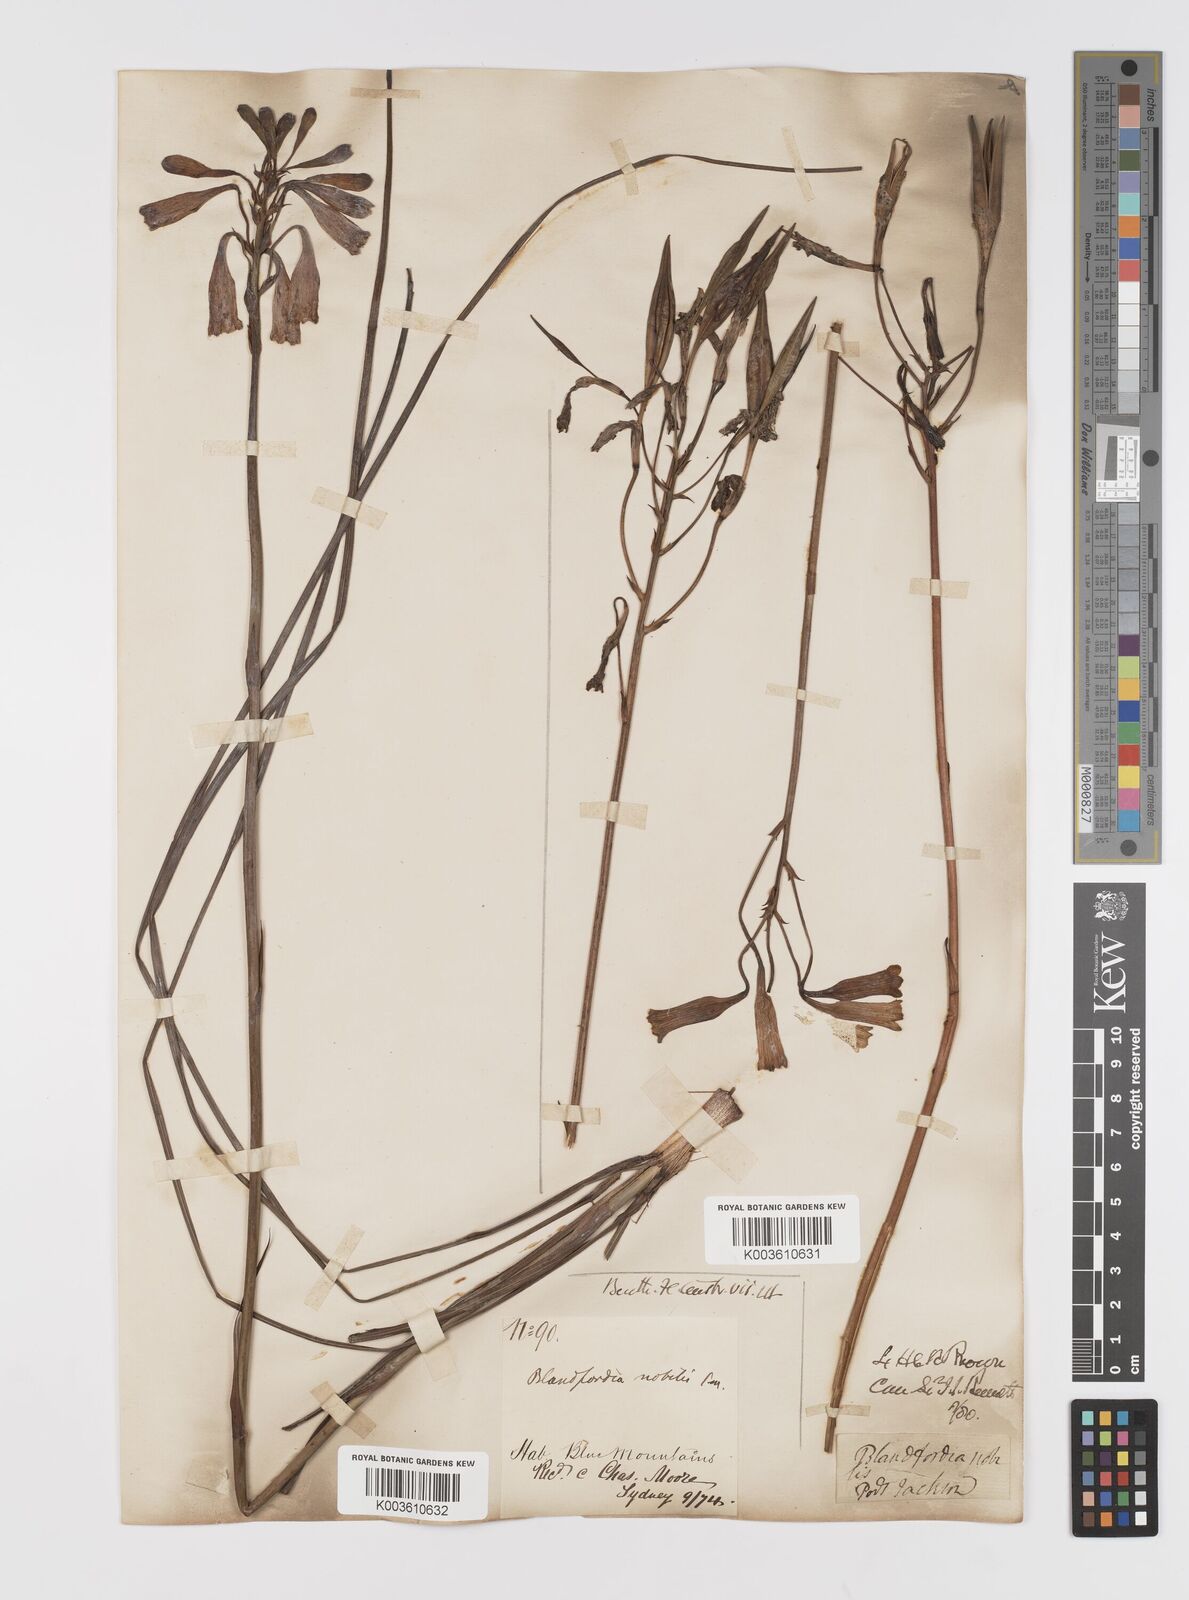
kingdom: Plantae
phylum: Tracheophyta
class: Liliopsida
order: Asparagales
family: Blandfordiaceae
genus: Blandfordia
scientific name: Blandfordia nobilis
